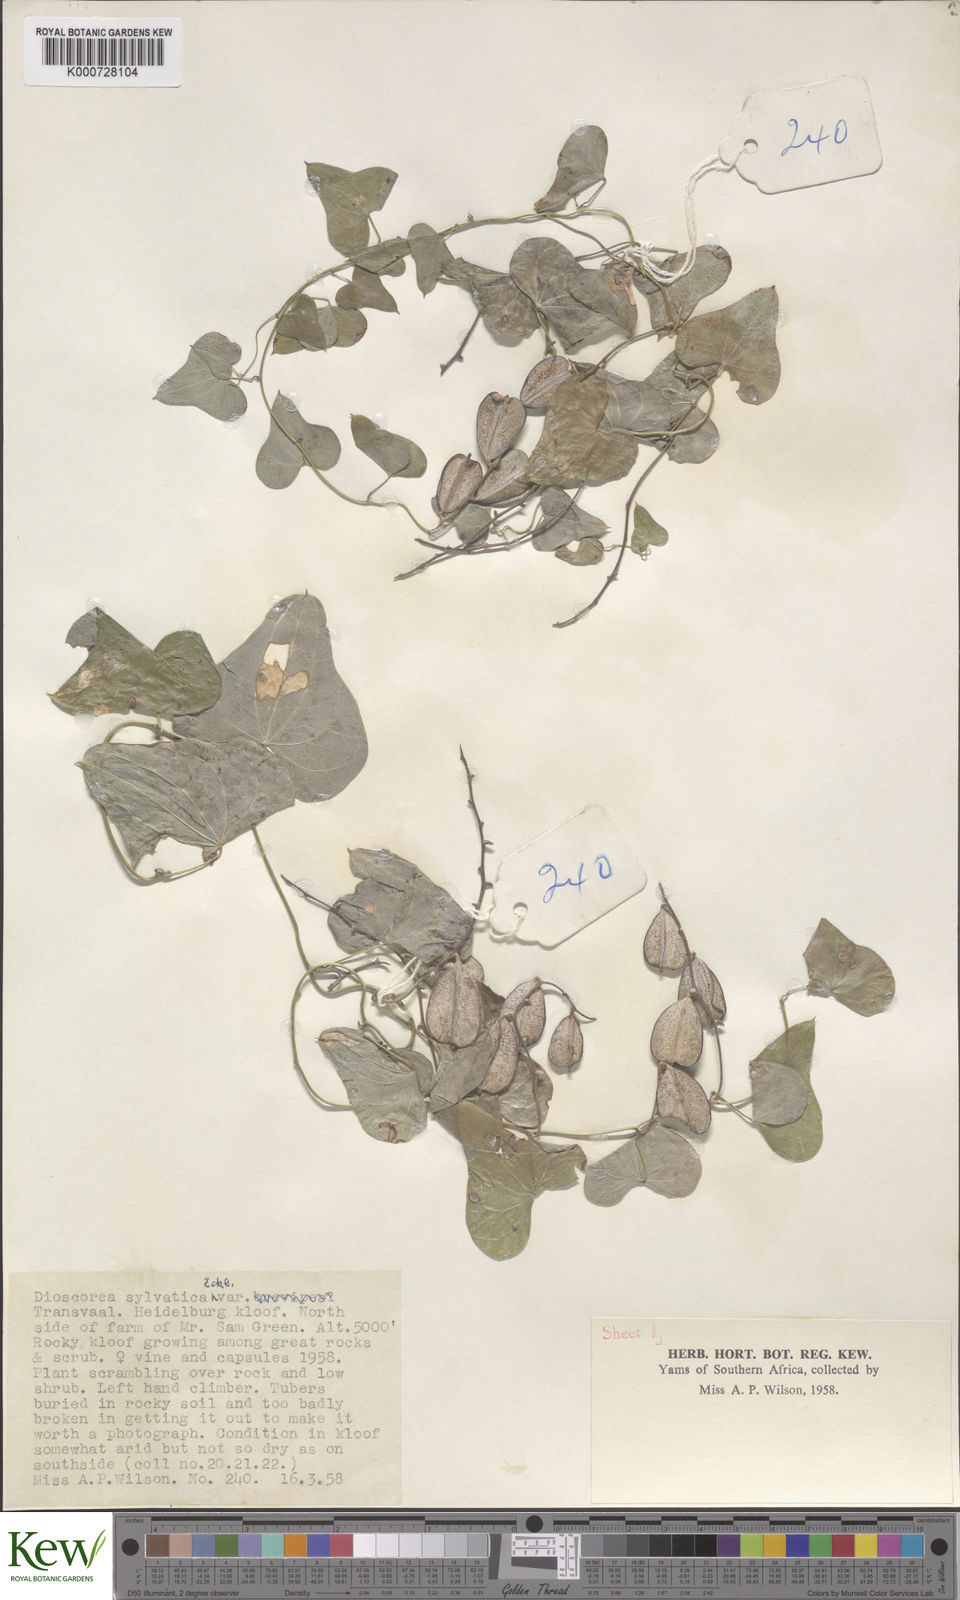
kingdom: Plantae
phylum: Tracheophyta
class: Liliopsida
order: Dioscoreales
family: Dioscoreaceae
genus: Dioscorea
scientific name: Dioscorea sylvatica
